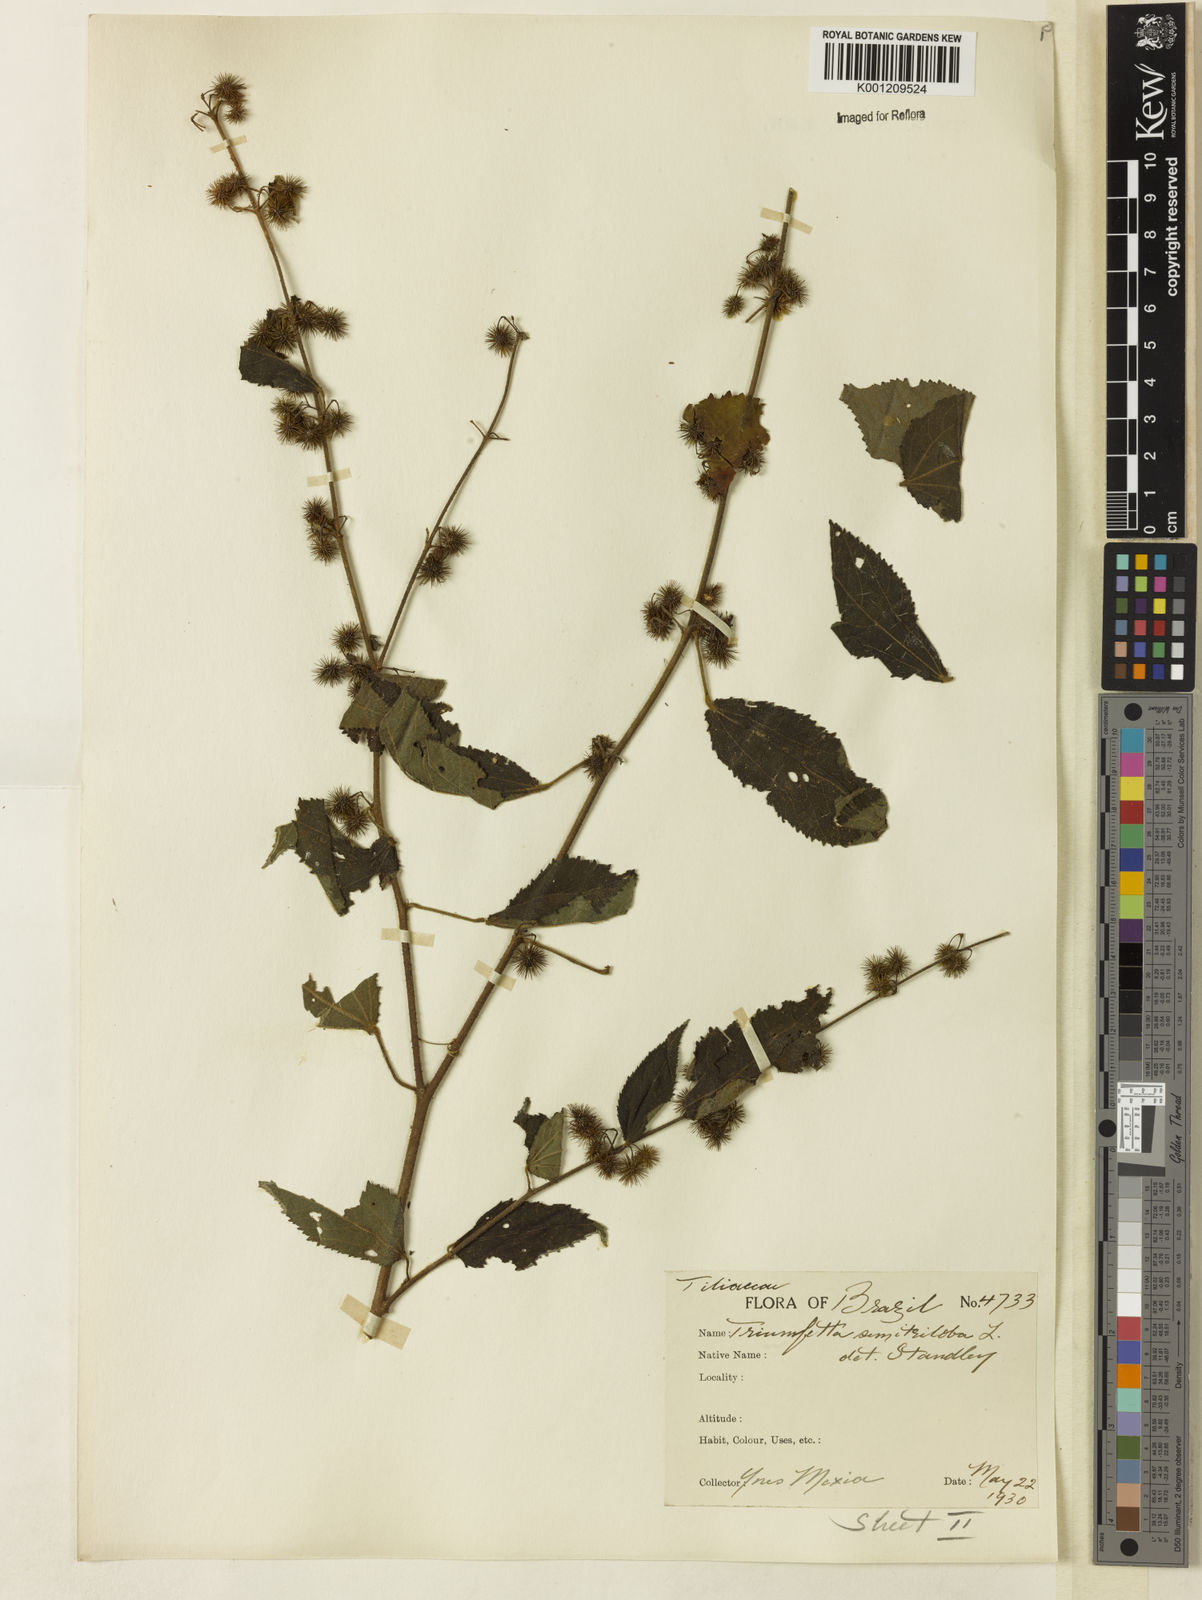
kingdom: Plantae
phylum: Tracheophyta
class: Magnoliopsida
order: Malvales
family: Malvaceae
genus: Triumfetta
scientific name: Triumfetta semitriloba
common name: Sacramento burbark
